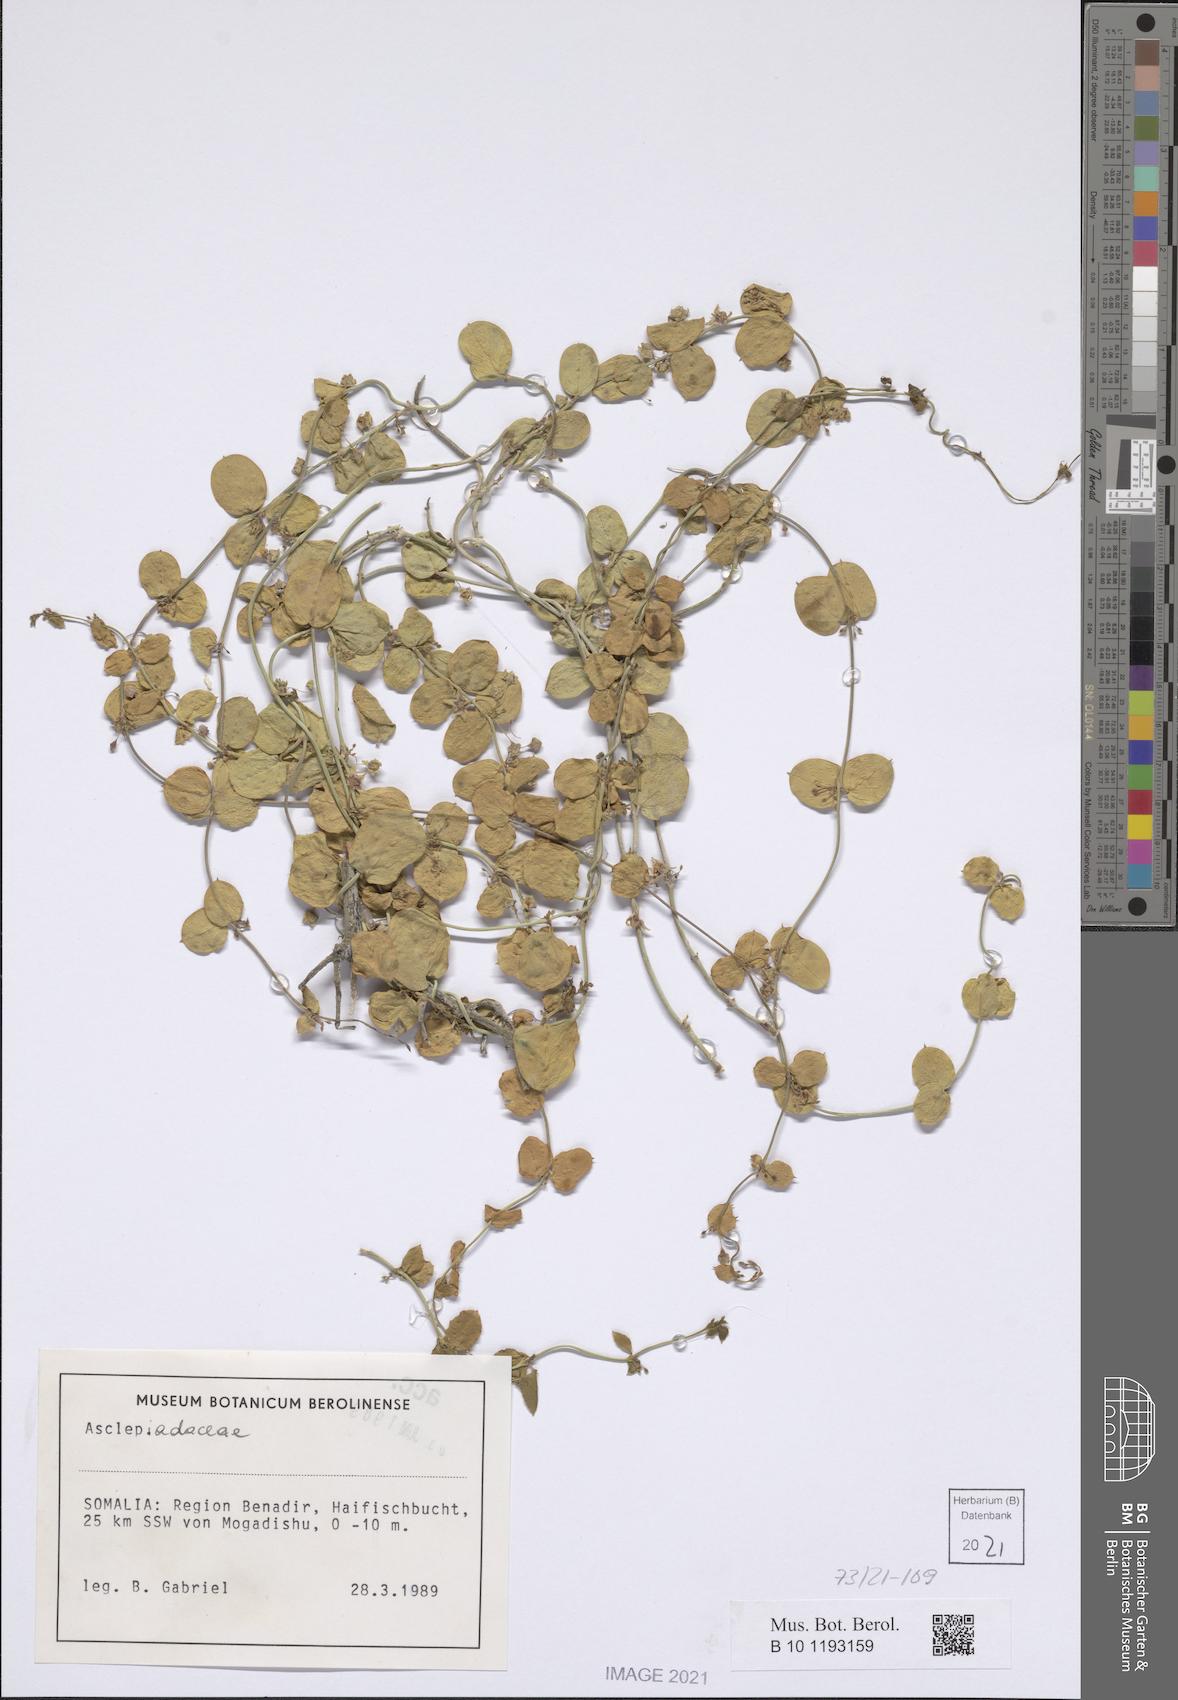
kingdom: Plantae
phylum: Tracheophyta
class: Magnoliopsida
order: Gentianales
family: Apocynaceae
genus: Pentatropis
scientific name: Pentatropis nivalis
